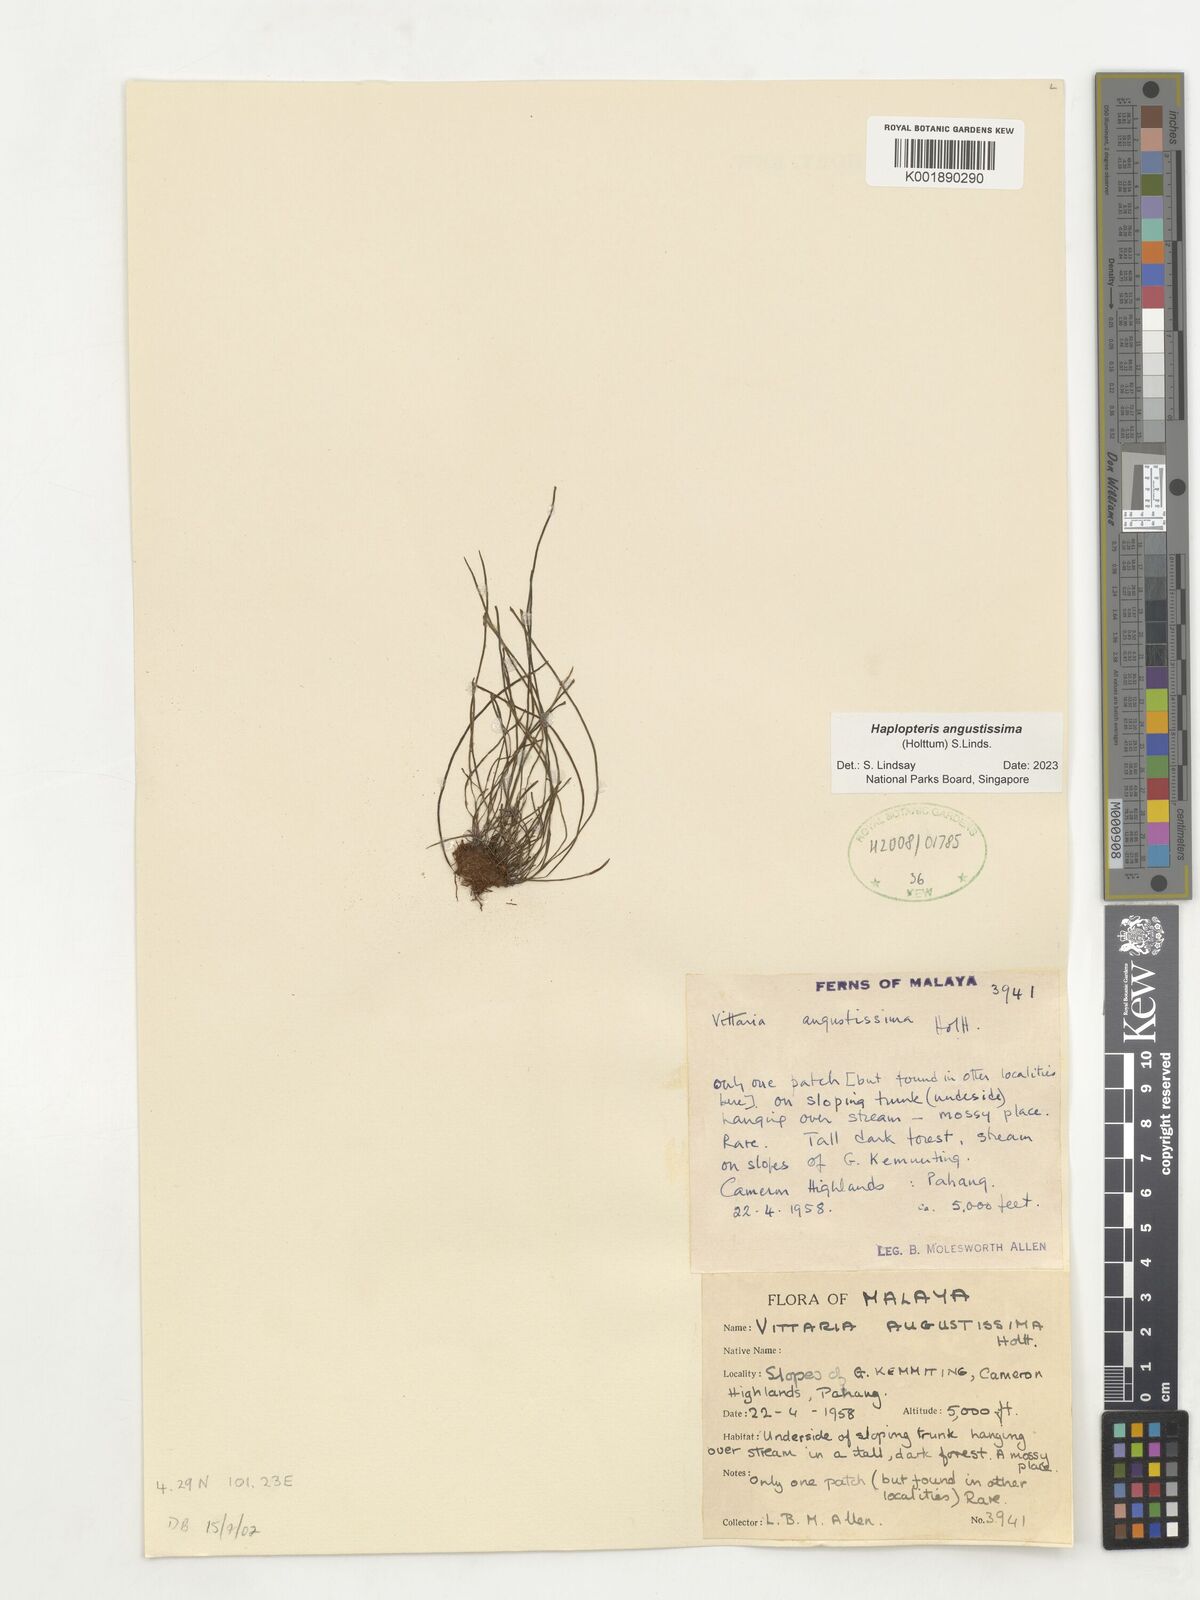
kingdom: Plantae
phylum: Tracheophyta
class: Polypodiopsida
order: Polypodiales
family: Pteridaceae
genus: Haplopteris
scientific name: Haplopteris angustissima
